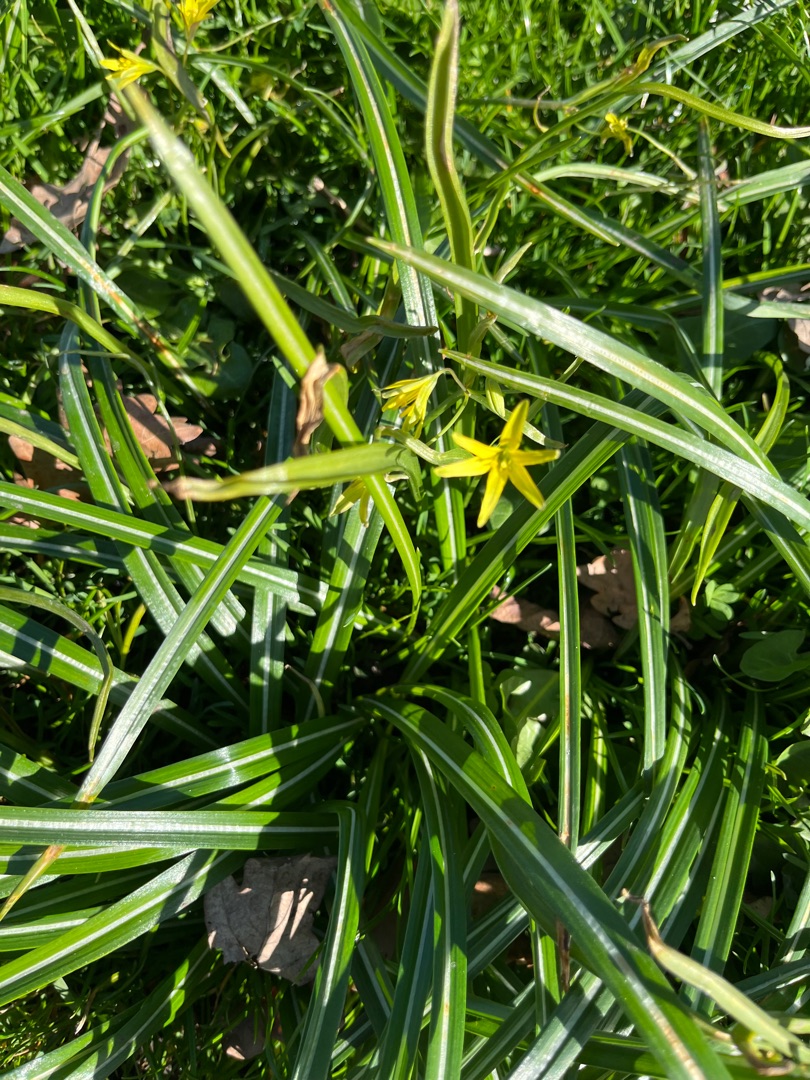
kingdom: Plantae
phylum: Tracheophyta
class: Liliopsida
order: Liliales
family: Liliaceae
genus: Gagea
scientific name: Gagea lutea
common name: Almindelig guldstjerne
